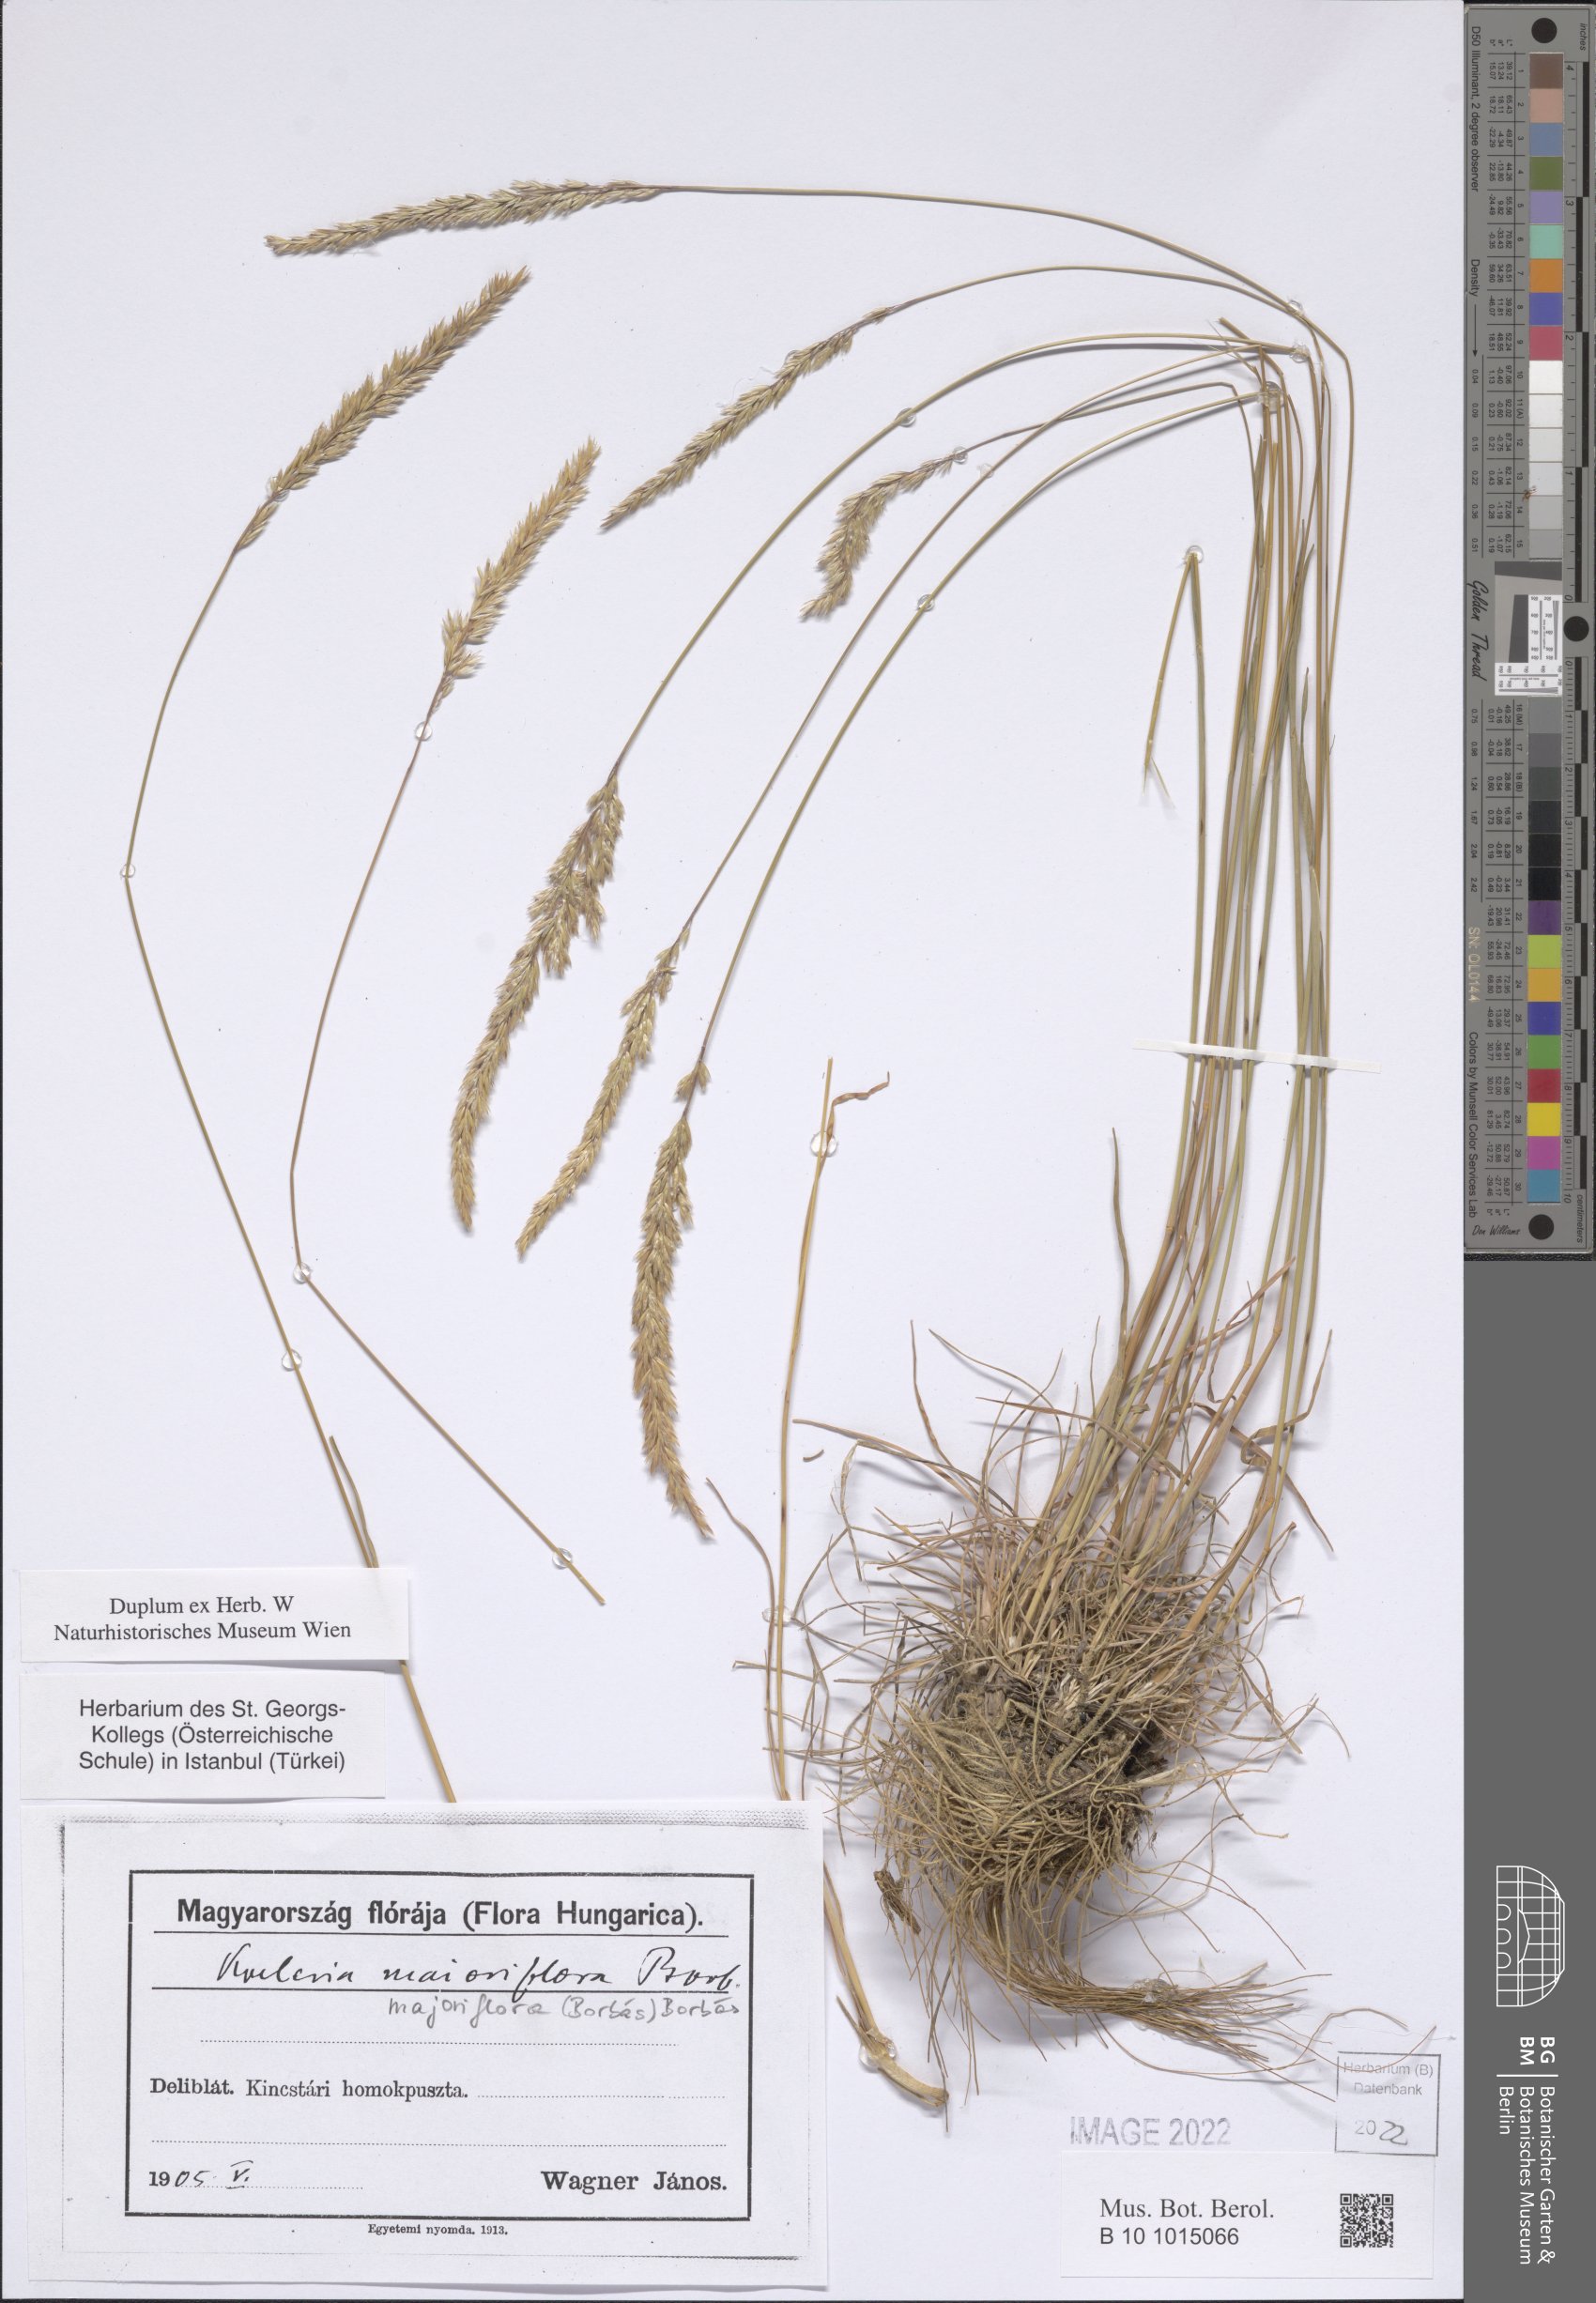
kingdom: Plantae
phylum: Tracheophyta
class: Liliopsida
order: Poales
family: Poaceae
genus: Koeleria
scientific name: Koeleria
